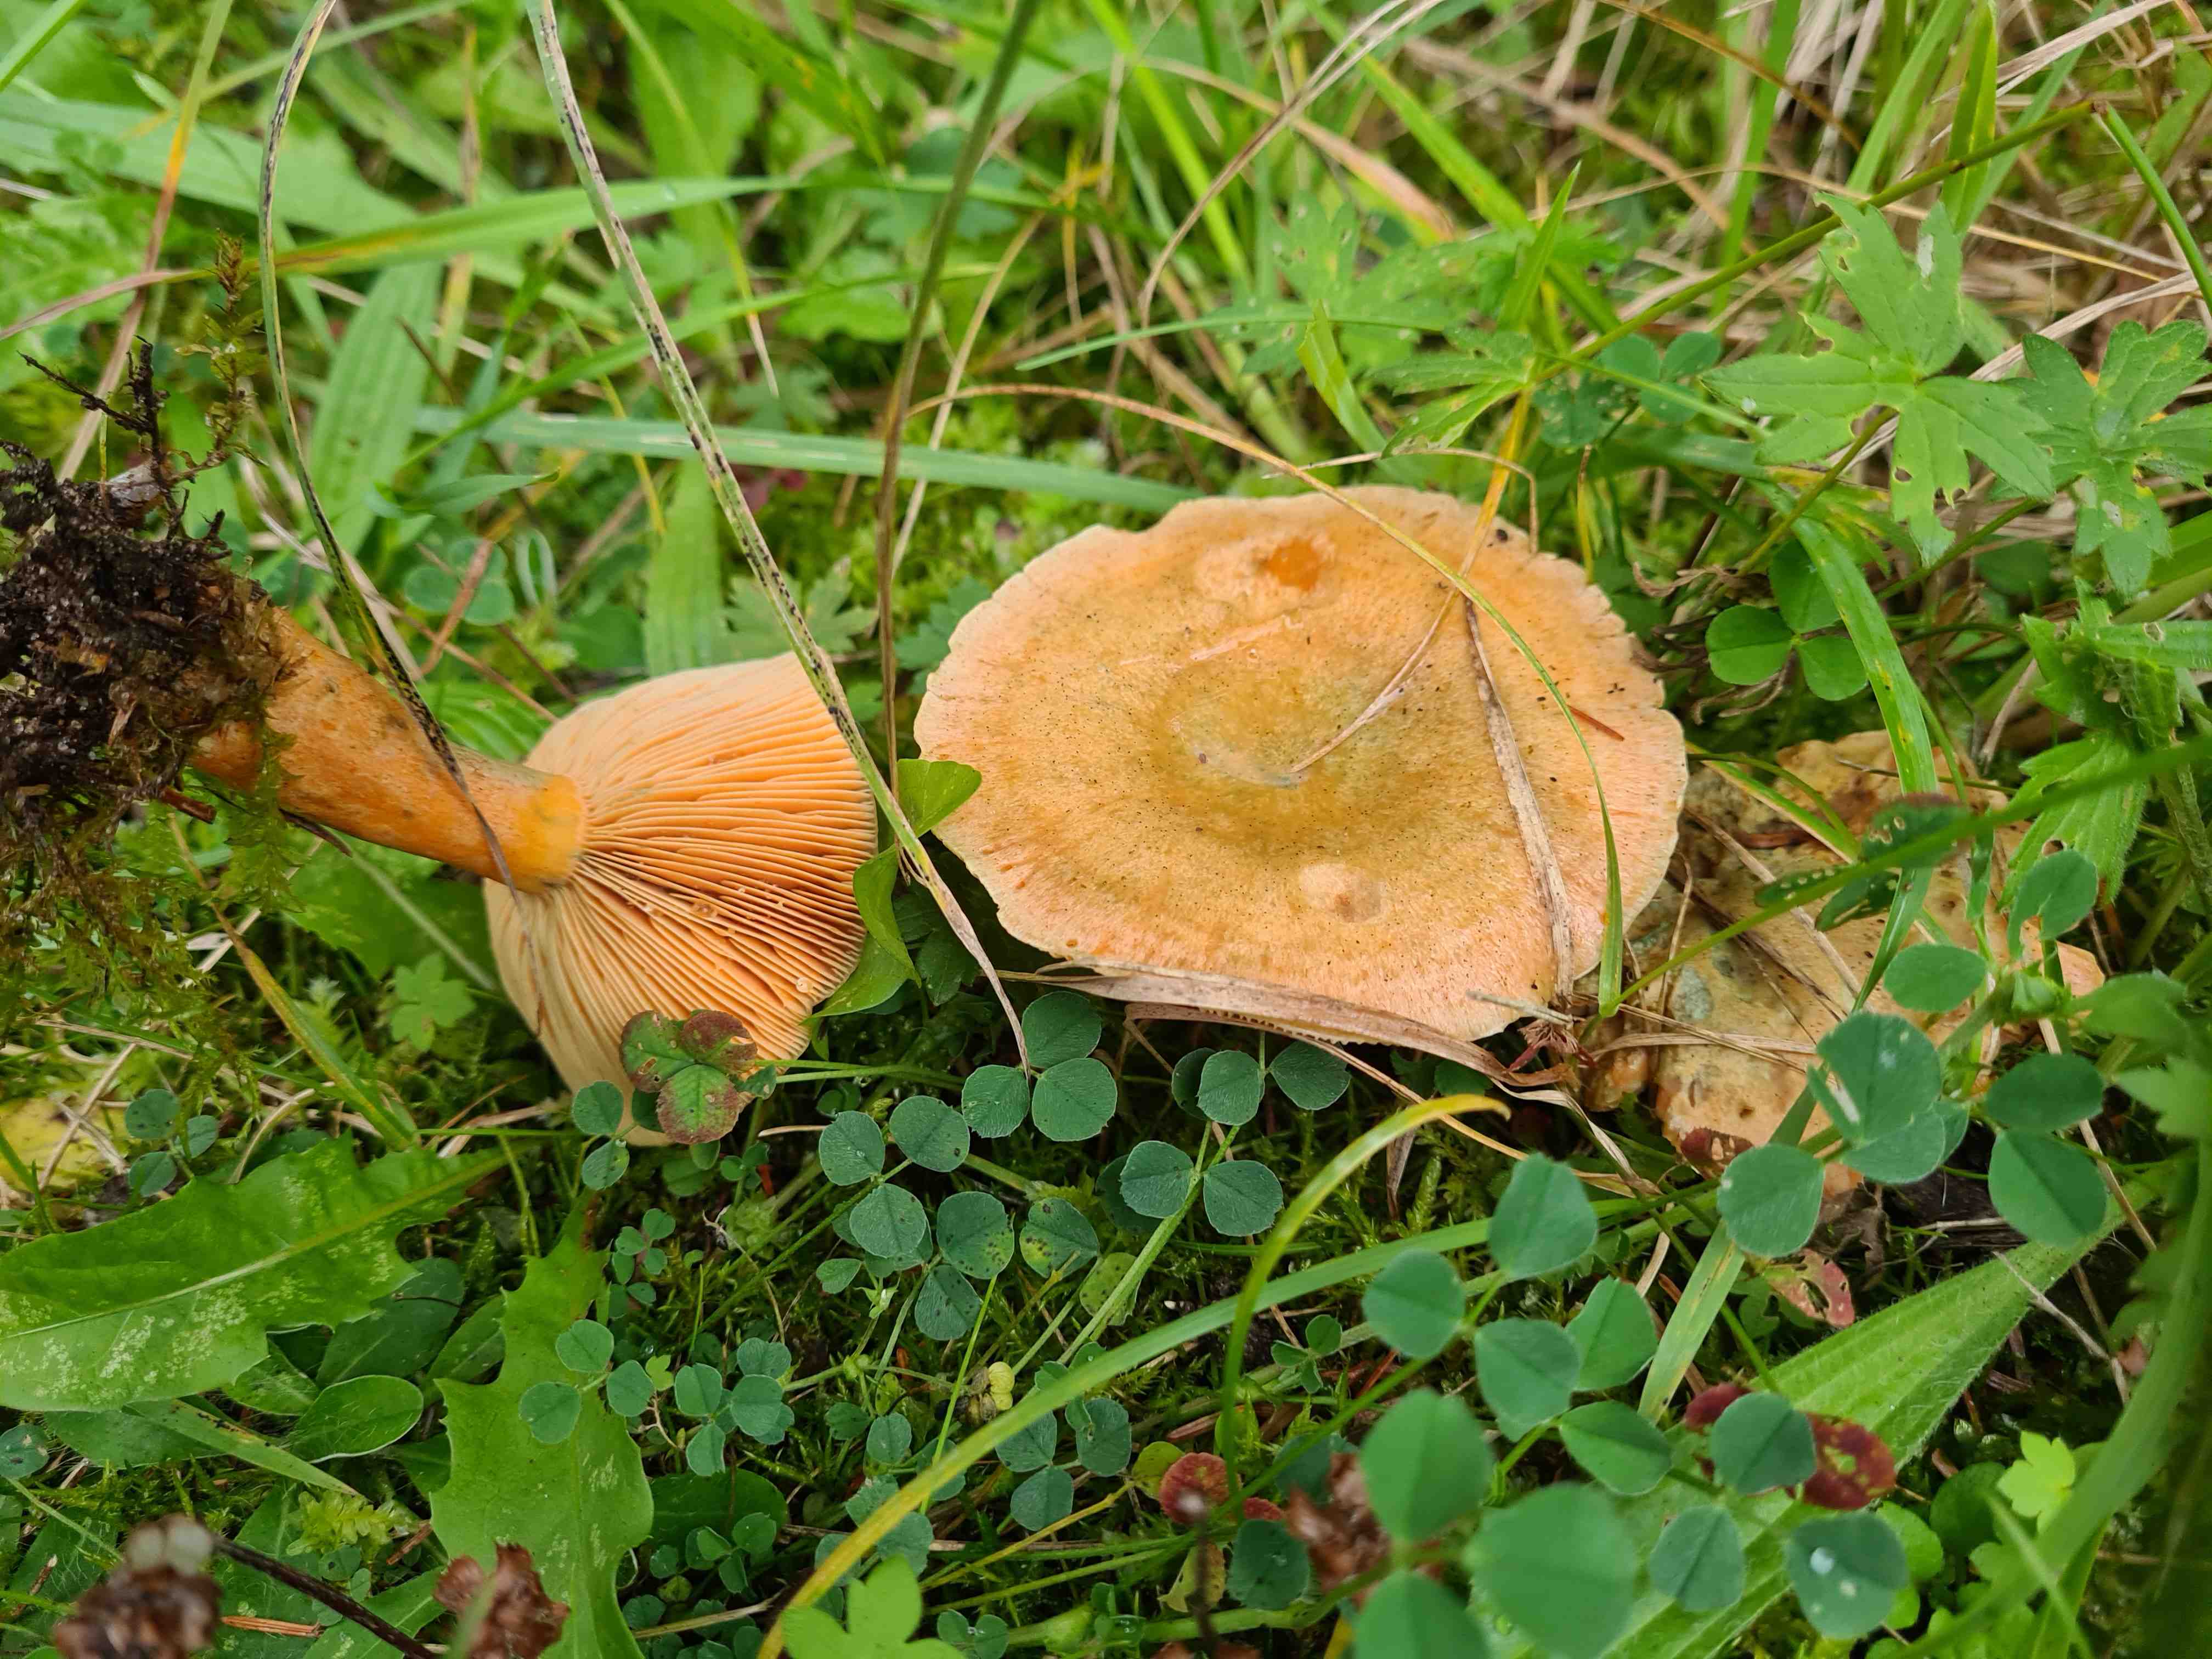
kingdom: Fungi
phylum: Basidiomycota
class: Agaricomycetes
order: Russulales
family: Russulaceae
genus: Lactarius
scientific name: Lactarius deterrimus
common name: gran-mælkehat
